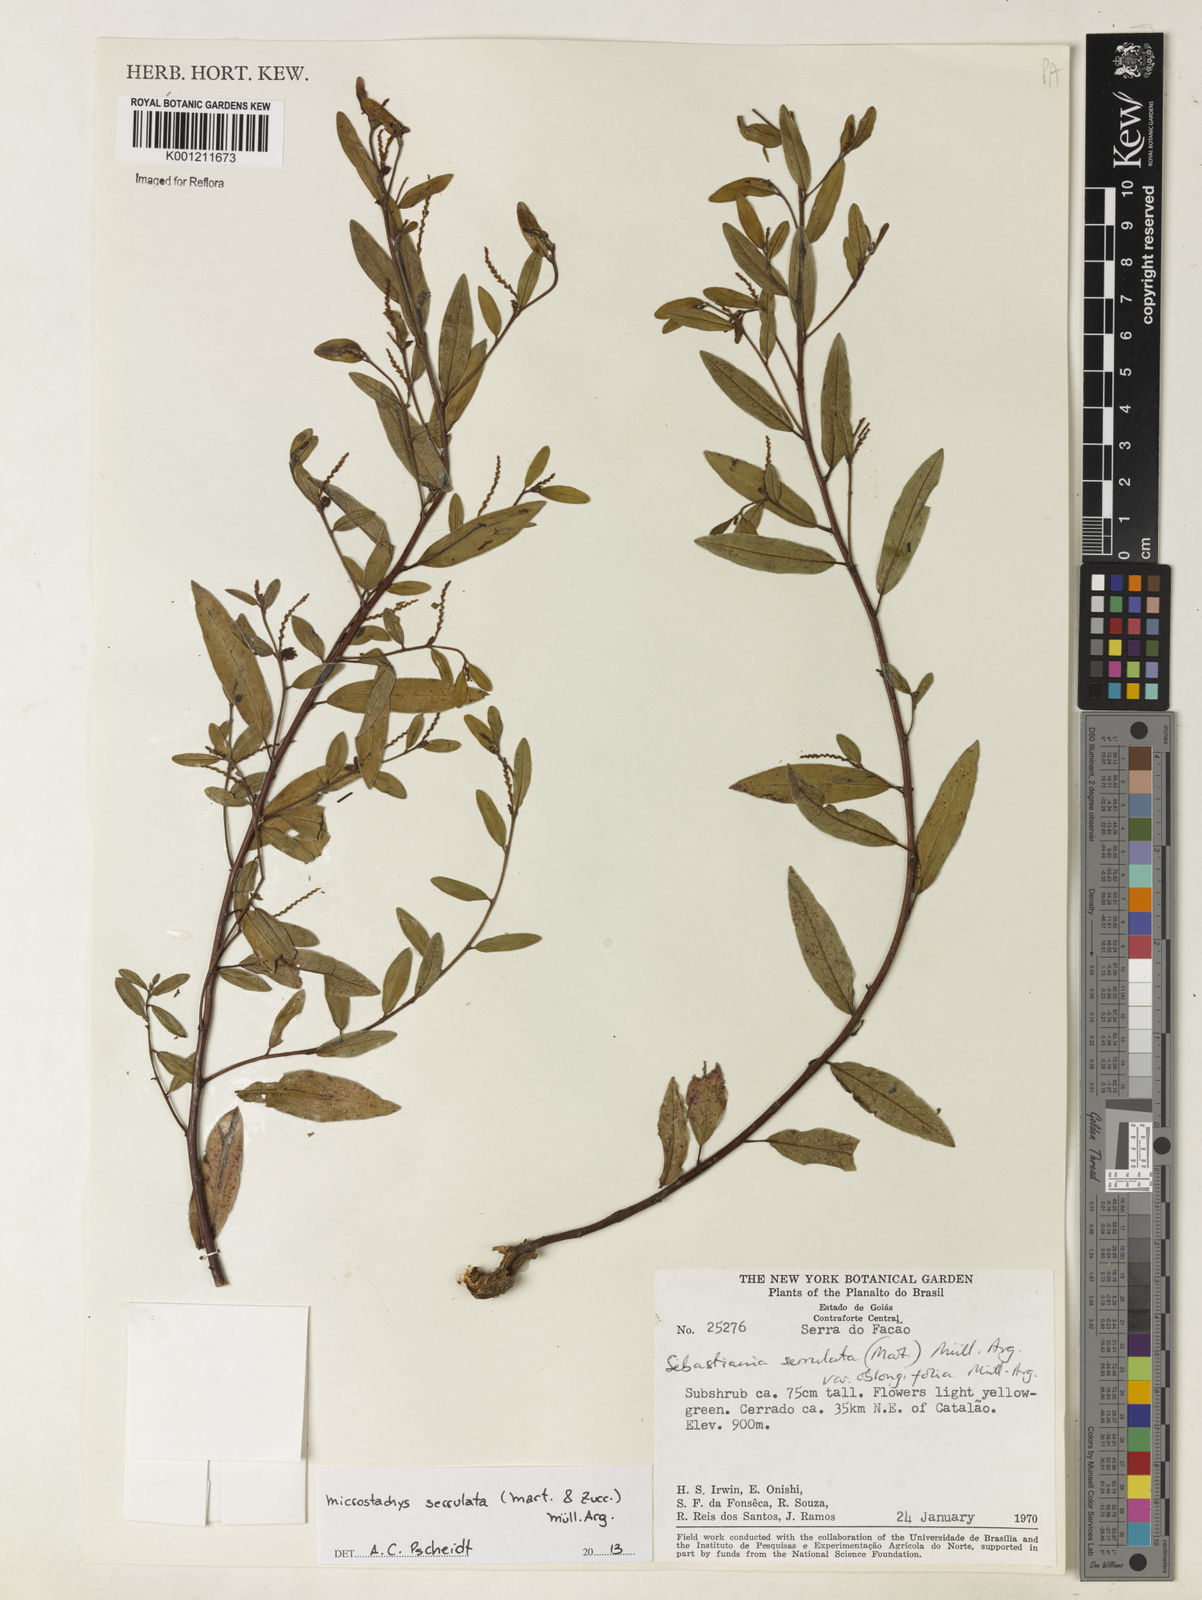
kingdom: Plantae
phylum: Tracheophyta
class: Magnoliopsida
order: Malpighiales
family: Euphorbiaceae
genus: Microstachys
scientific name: Microstachys
